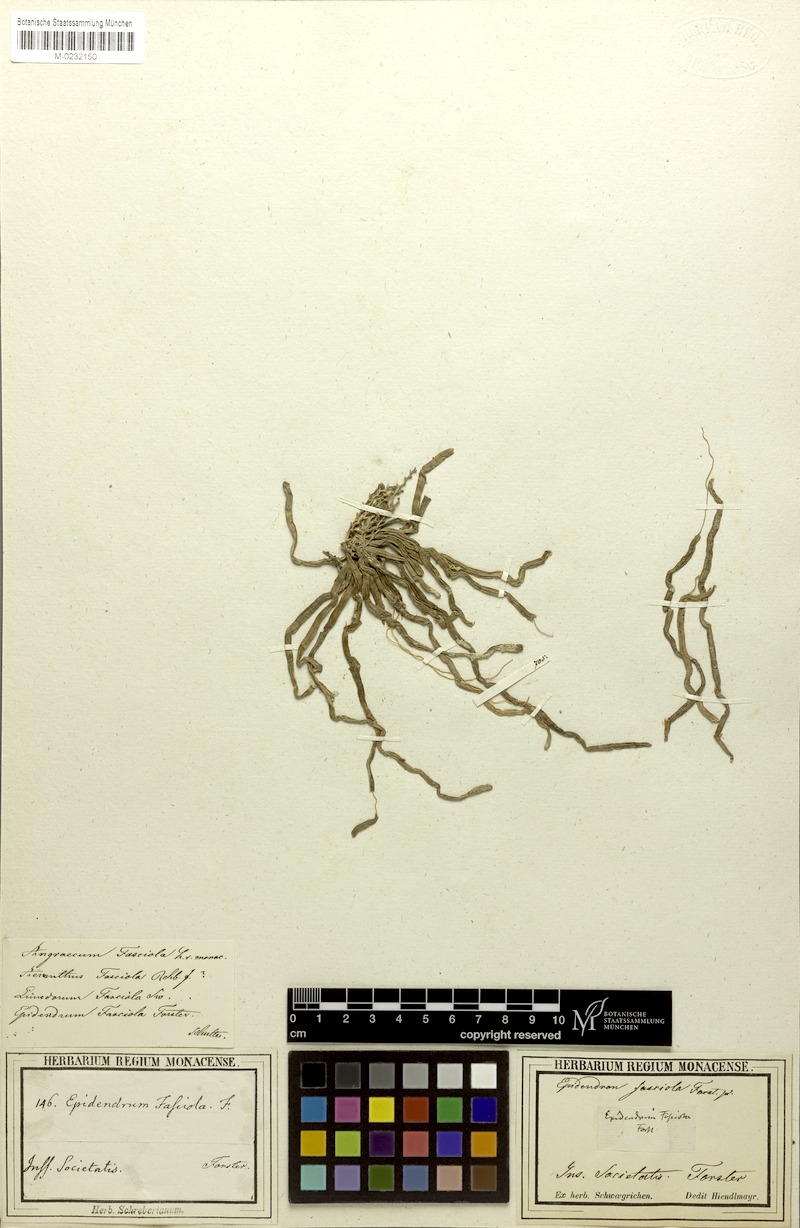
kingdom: Plantae
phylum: Tracheophyta
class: Liliopsida
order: Asparagales
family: Orchidaceae
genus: Taeniophyllum
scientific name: Taeniophyllum fasciola
